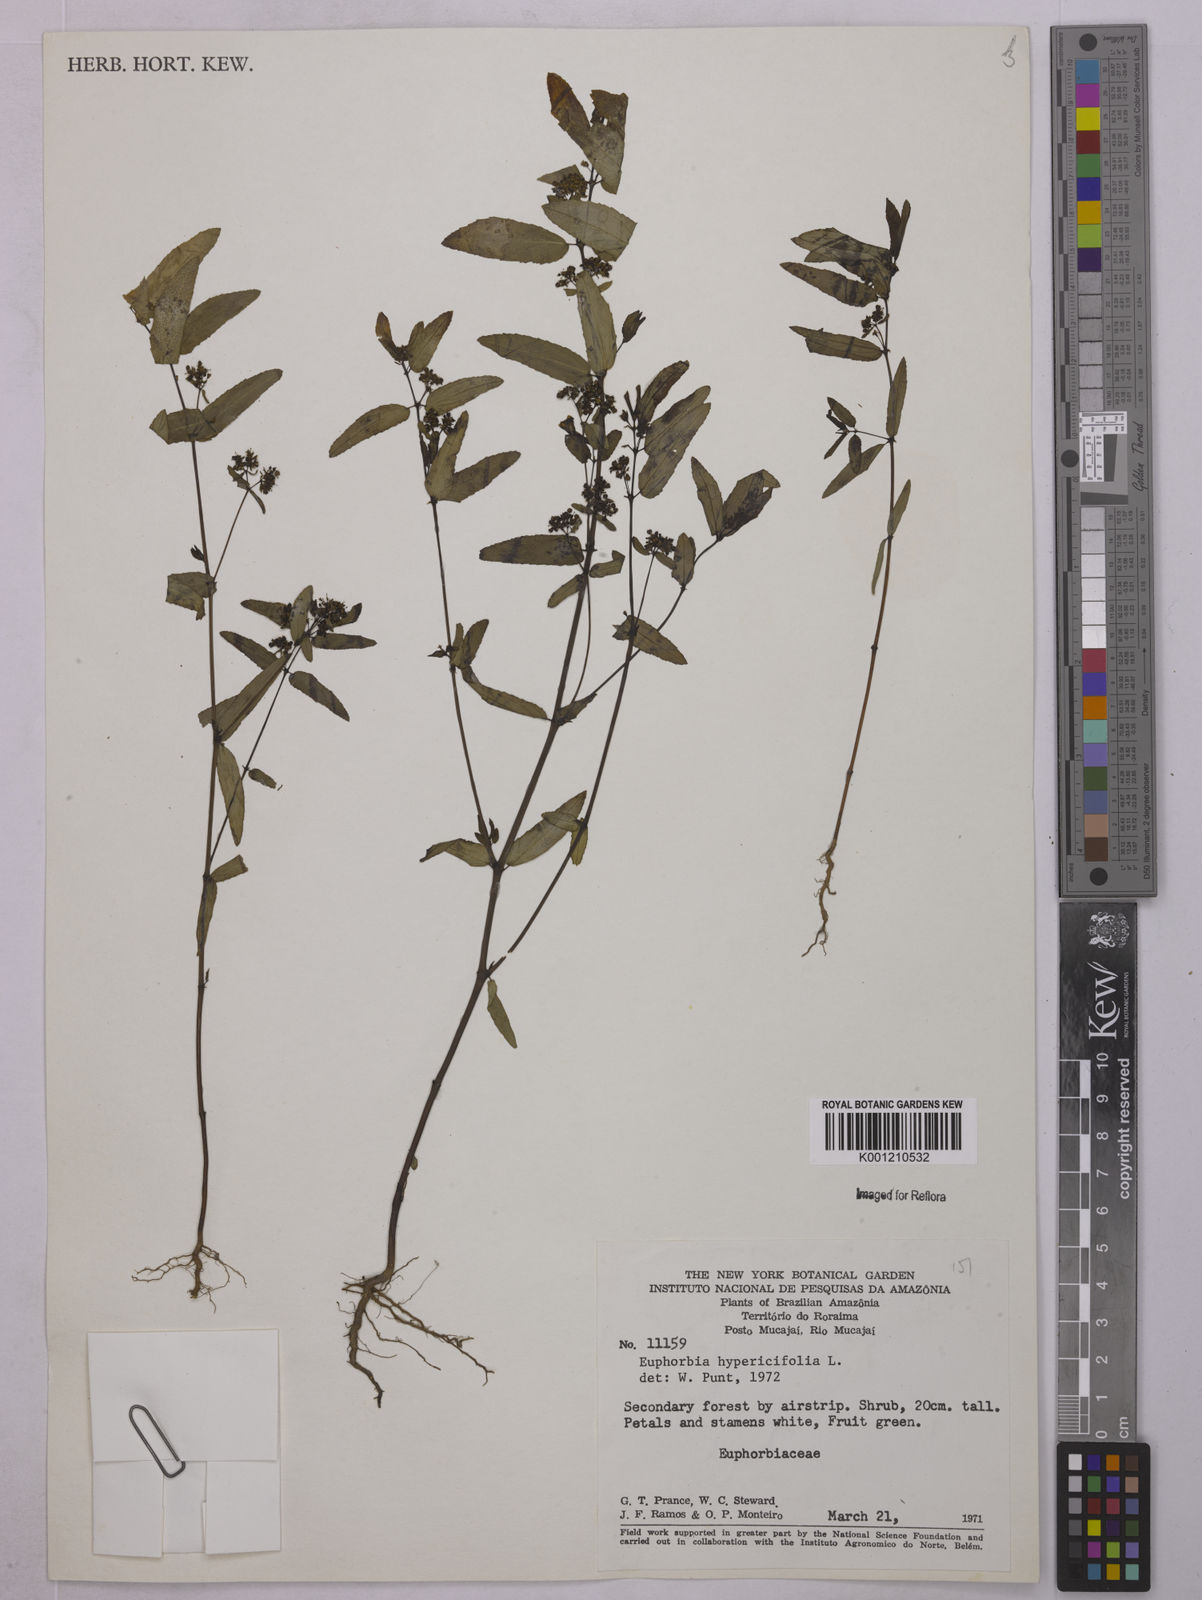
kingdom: Plantae
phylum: Tracheophyta
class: Magnoliopsida
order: Malpighiales
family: Euphorbiaceae
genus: Euphorbia
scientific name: Euphorbia hypericifolia
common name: Graceful sandmat
